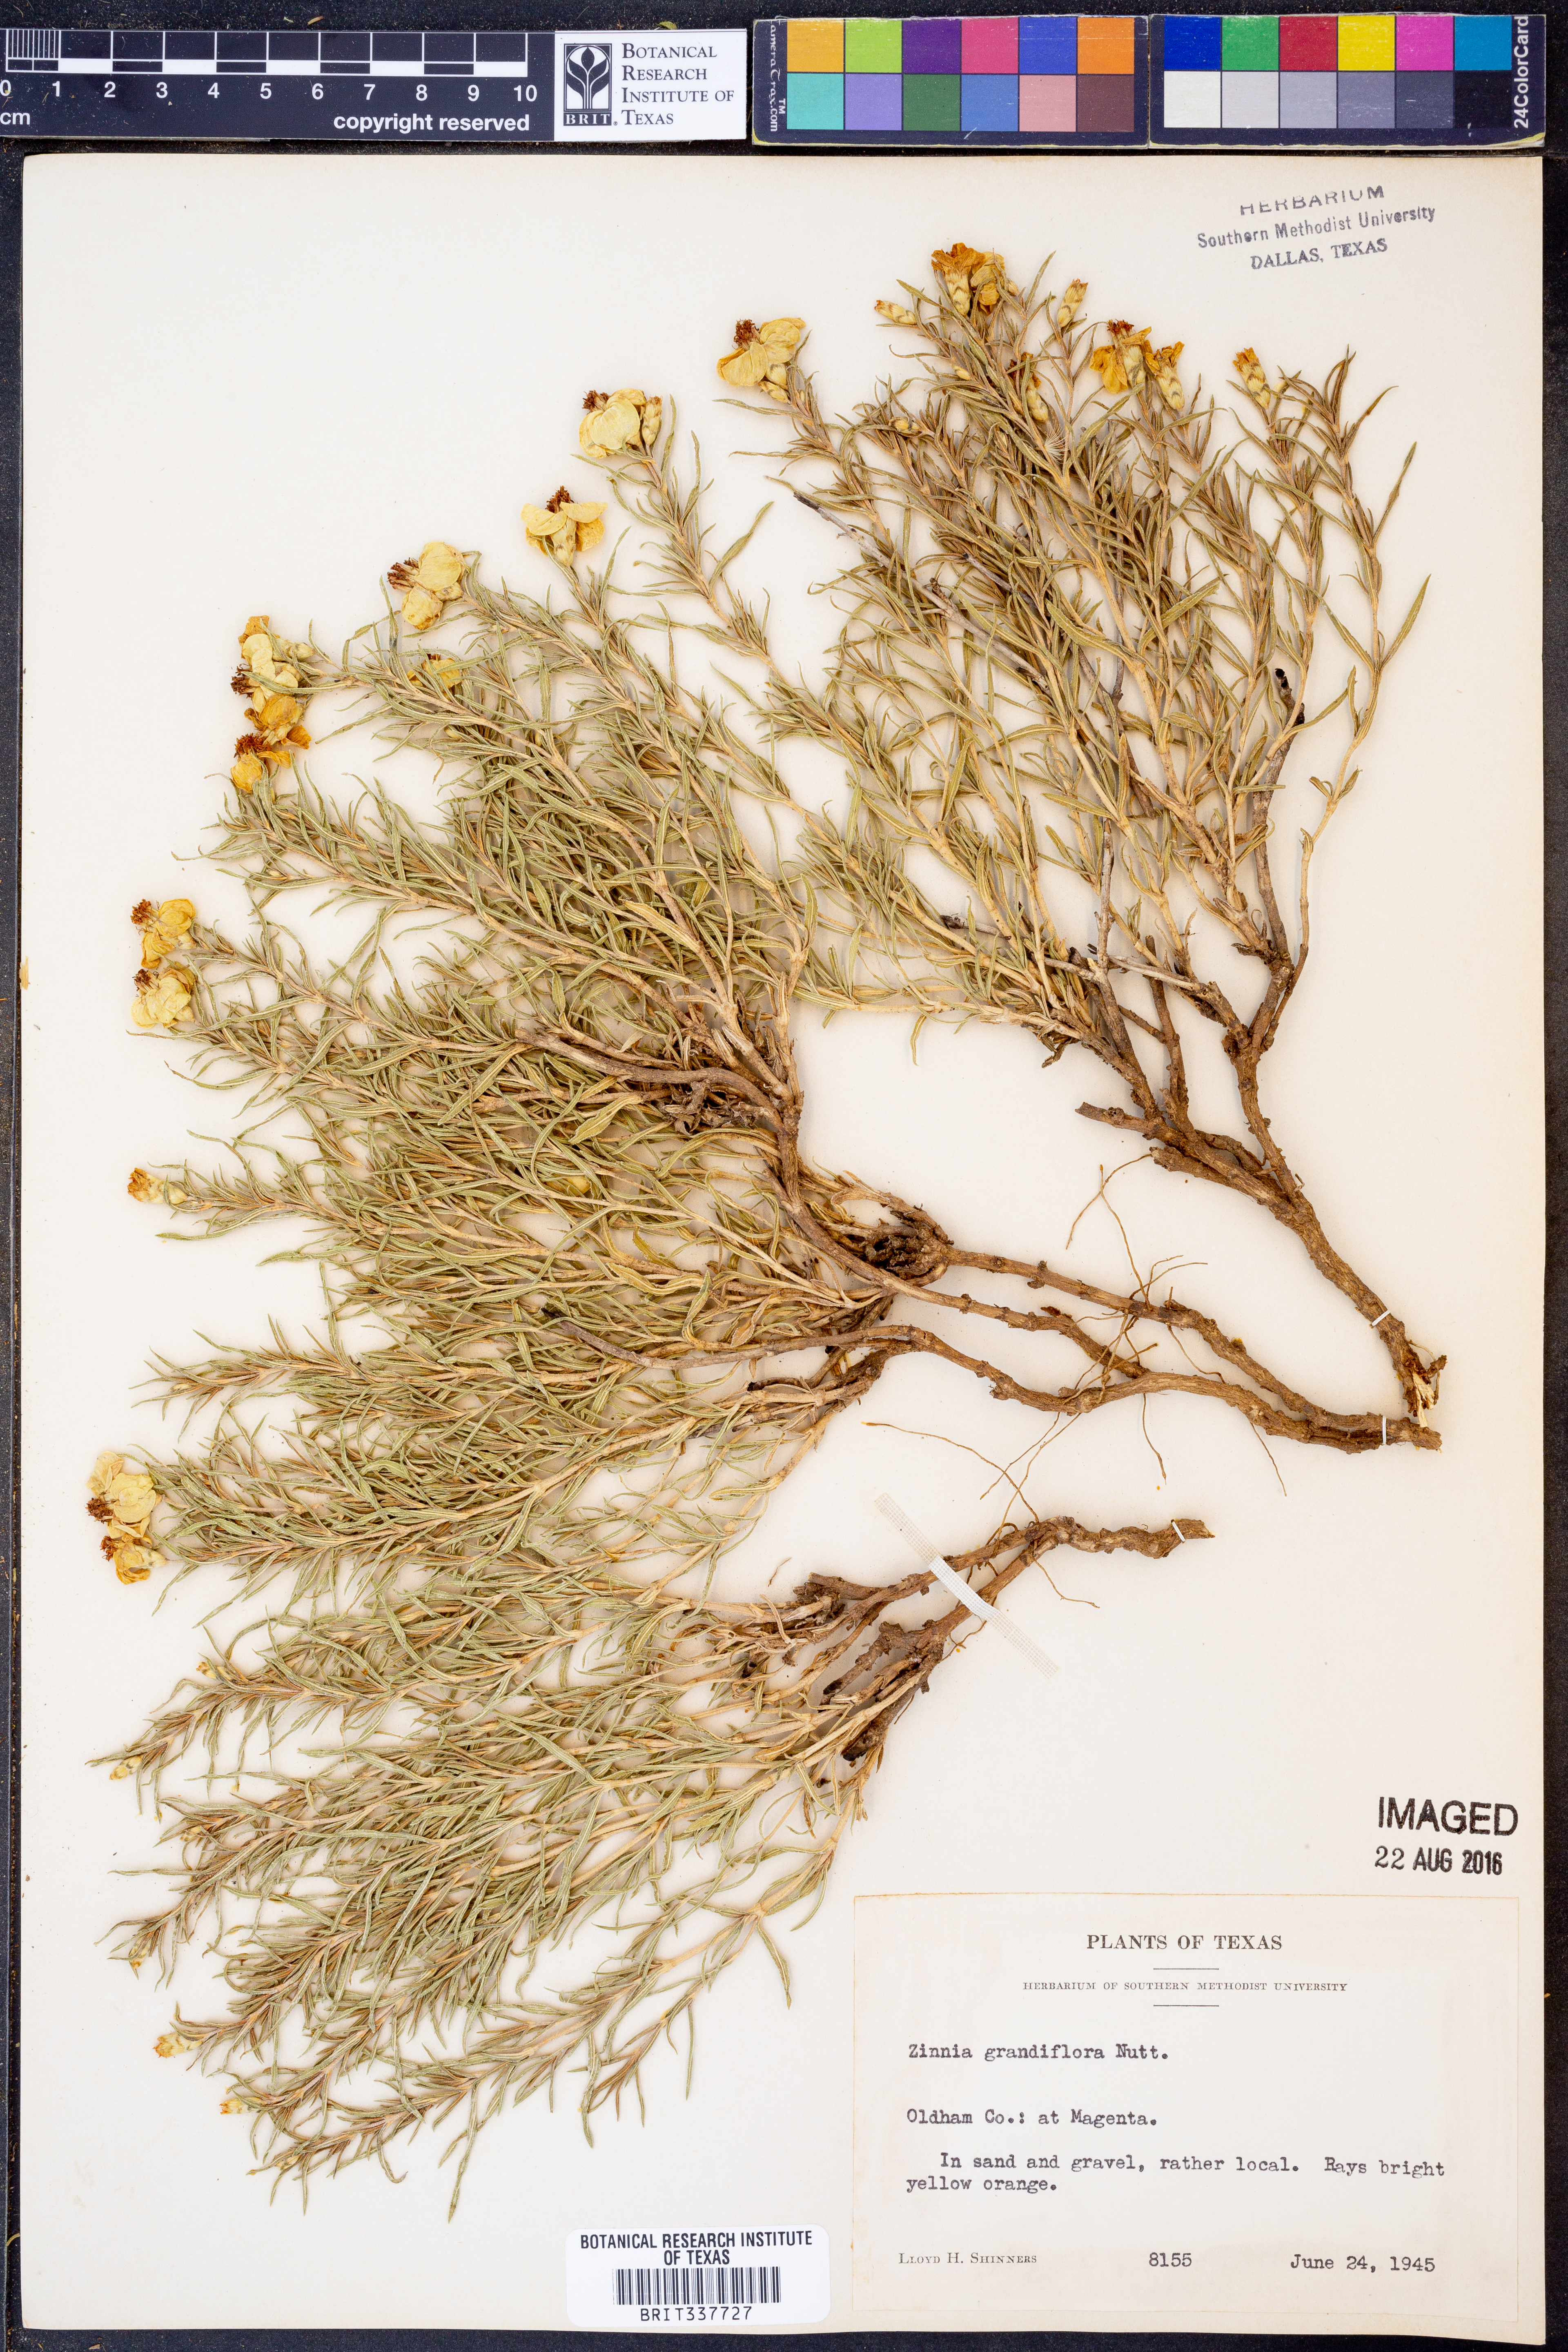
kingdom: Plantae
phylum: Tracheophyta
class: Magnoliopsida
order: Asterales
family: Asteraceae
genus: Zinnia
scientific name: Zinnia grandiflora
